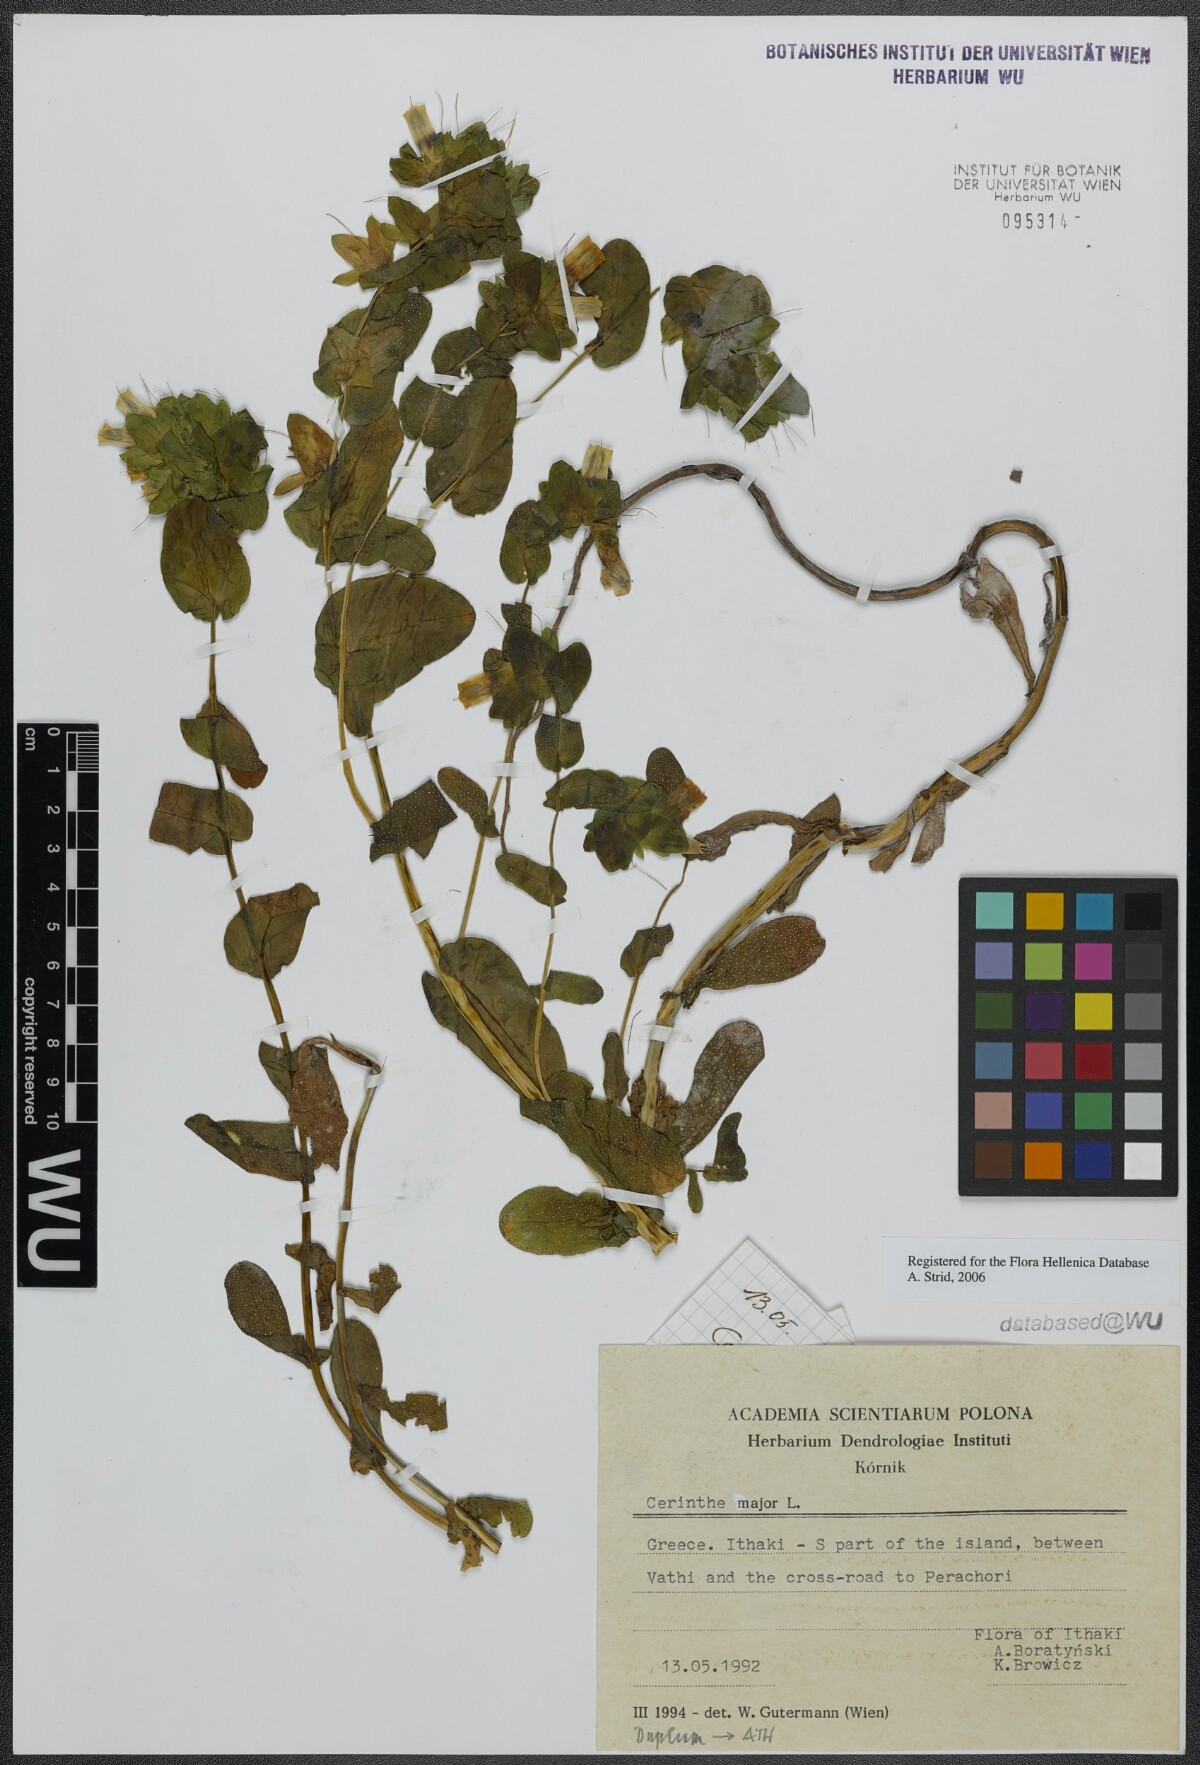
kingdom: Plantae
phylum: Tracheophyta
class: Magnoliopsida
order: Boraginales
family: Boraginaceae
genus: Cerinthe
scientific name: Cerinthe major
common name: Greater honeywort
